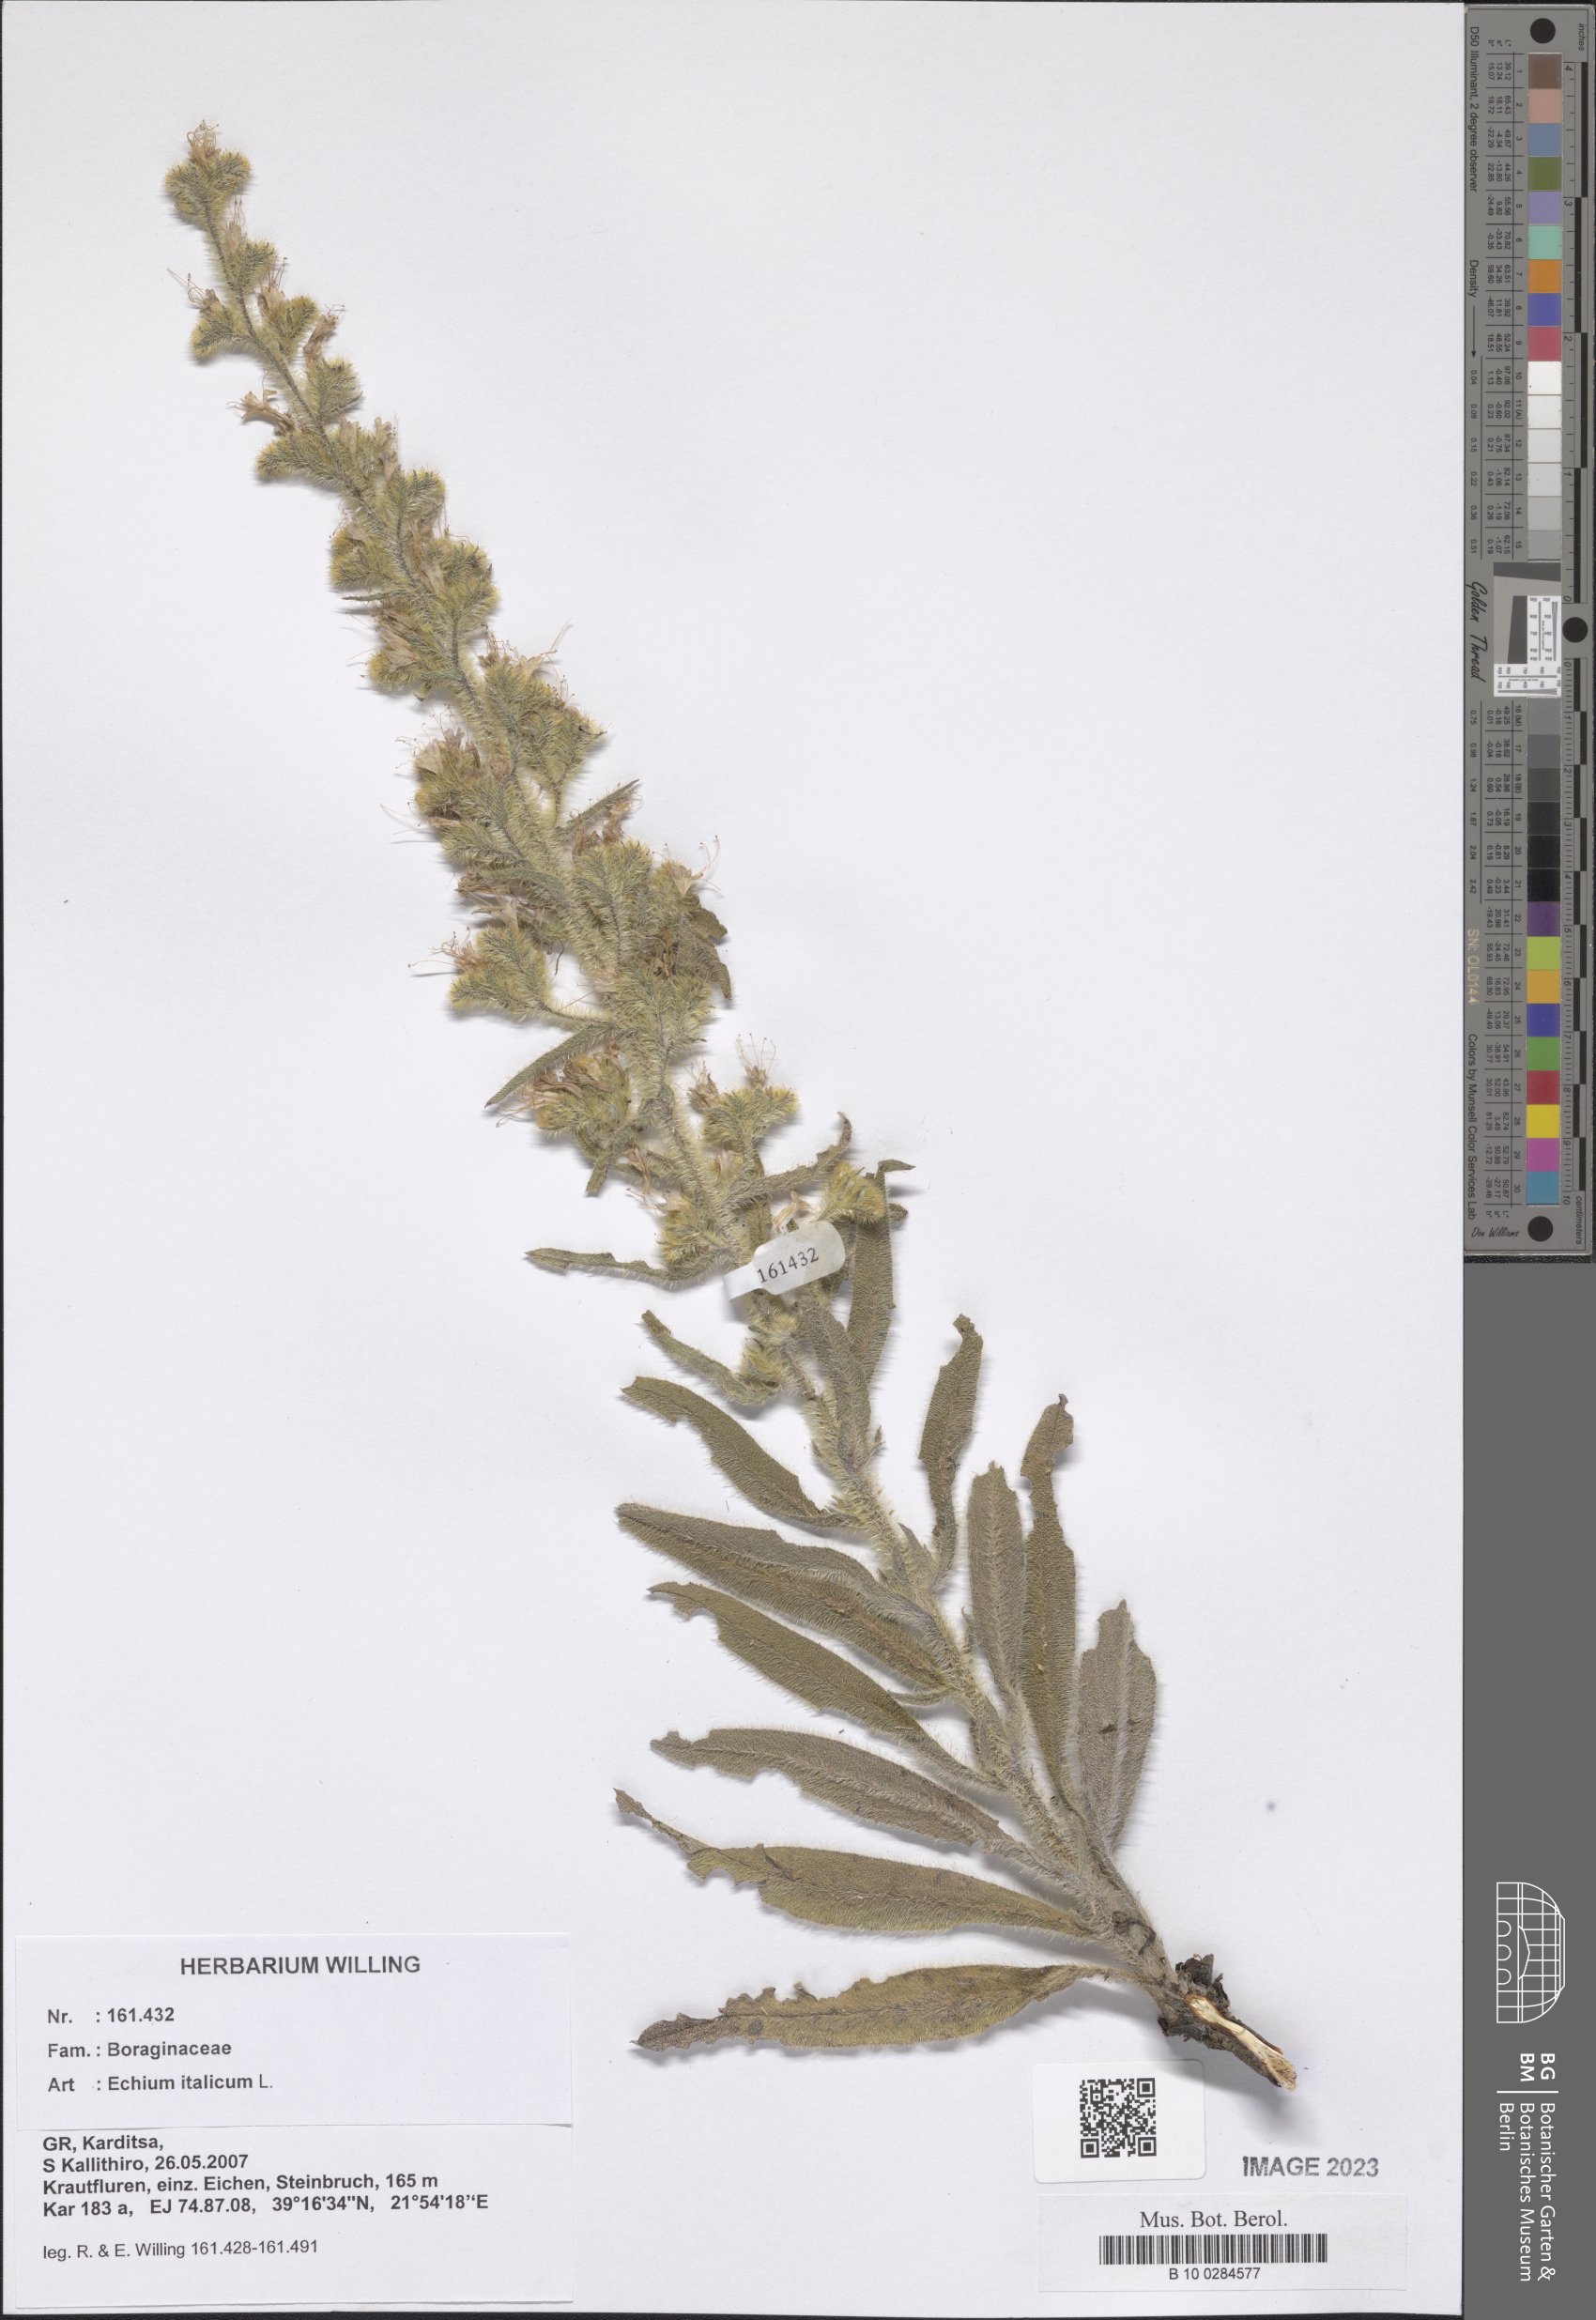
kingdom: Plantae
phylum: Tracheophyta
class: Magnoliopsida
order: Boraginales
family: Boraginaceae
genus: Echium
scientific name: Echium italicum
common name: Italian viper's bugloss
